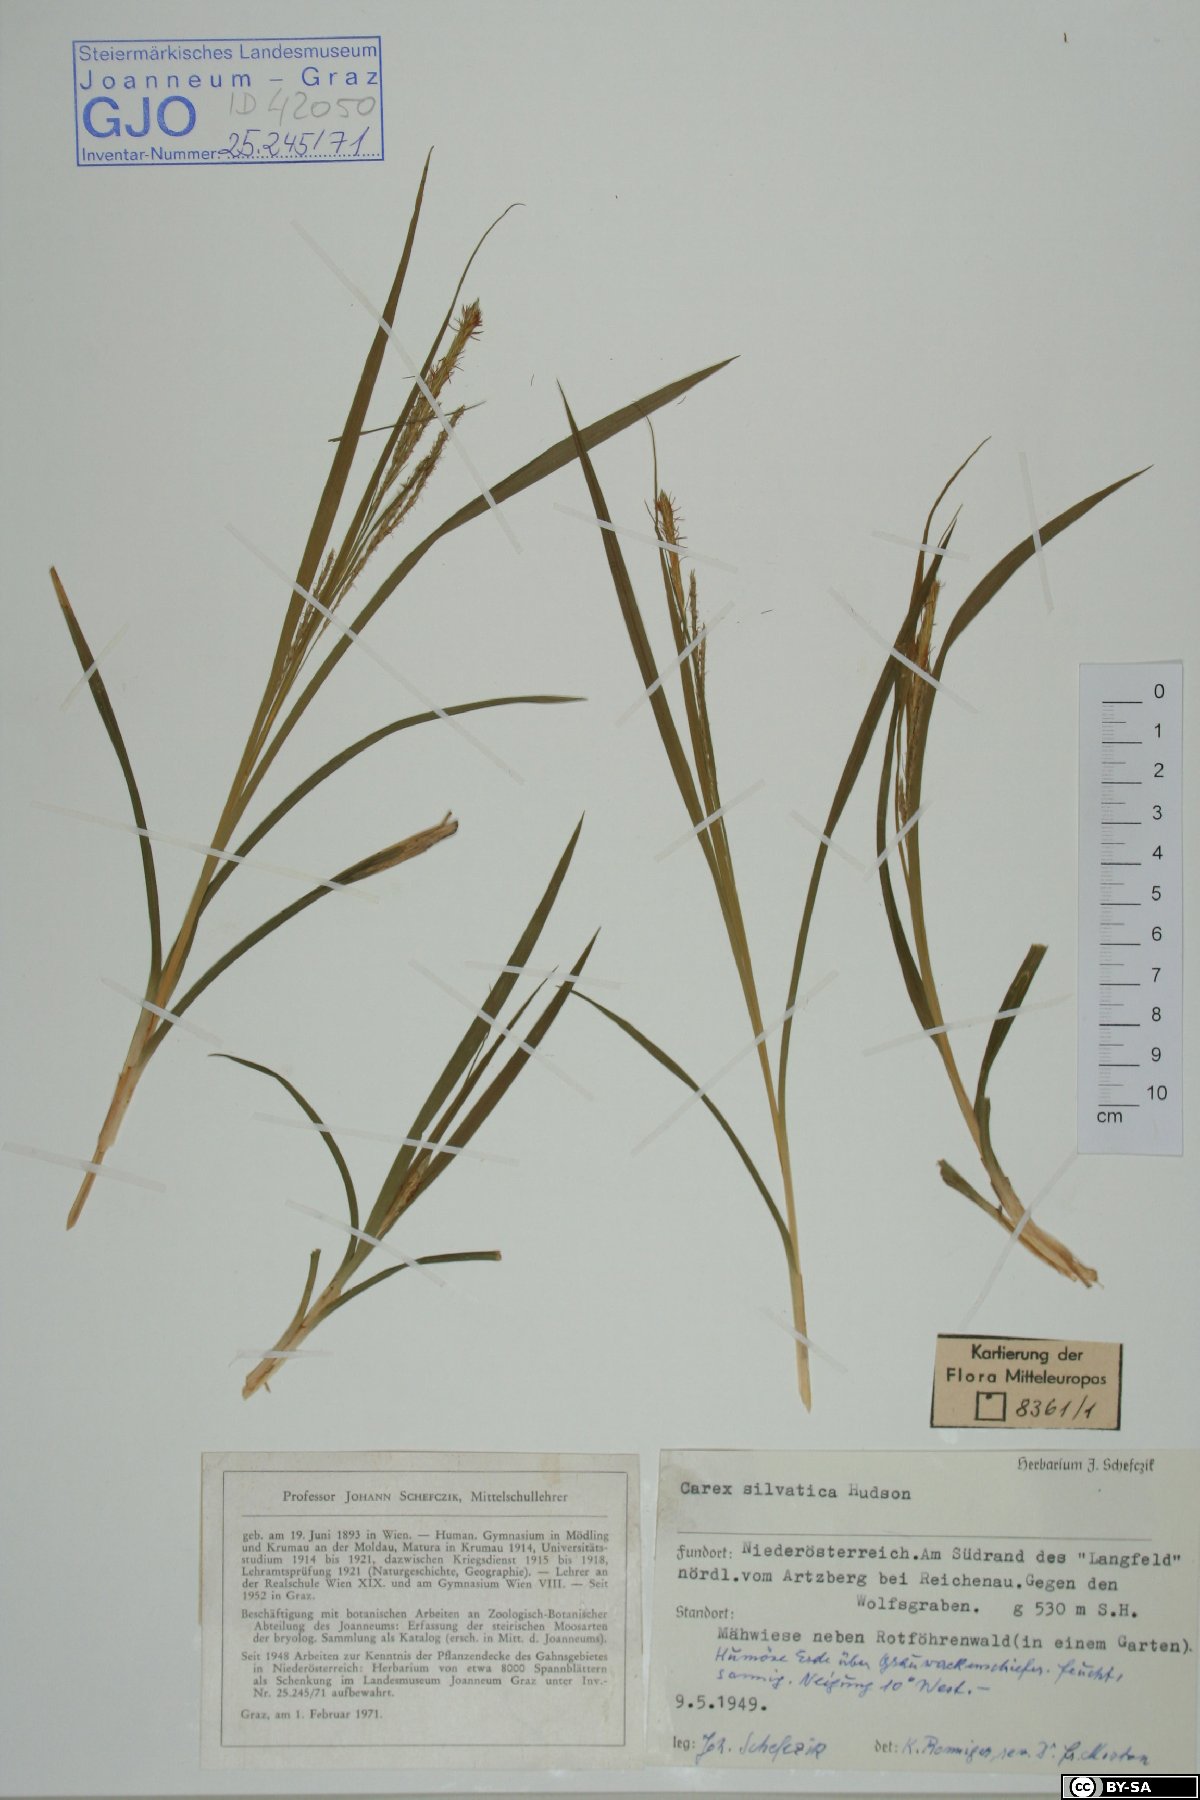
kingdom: Plantae
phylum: Tracheophyta
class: Liliopsida
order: Poales
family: Cyperaceae
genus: Carex
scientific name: Carex sylvatica
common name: Wood-sedge
